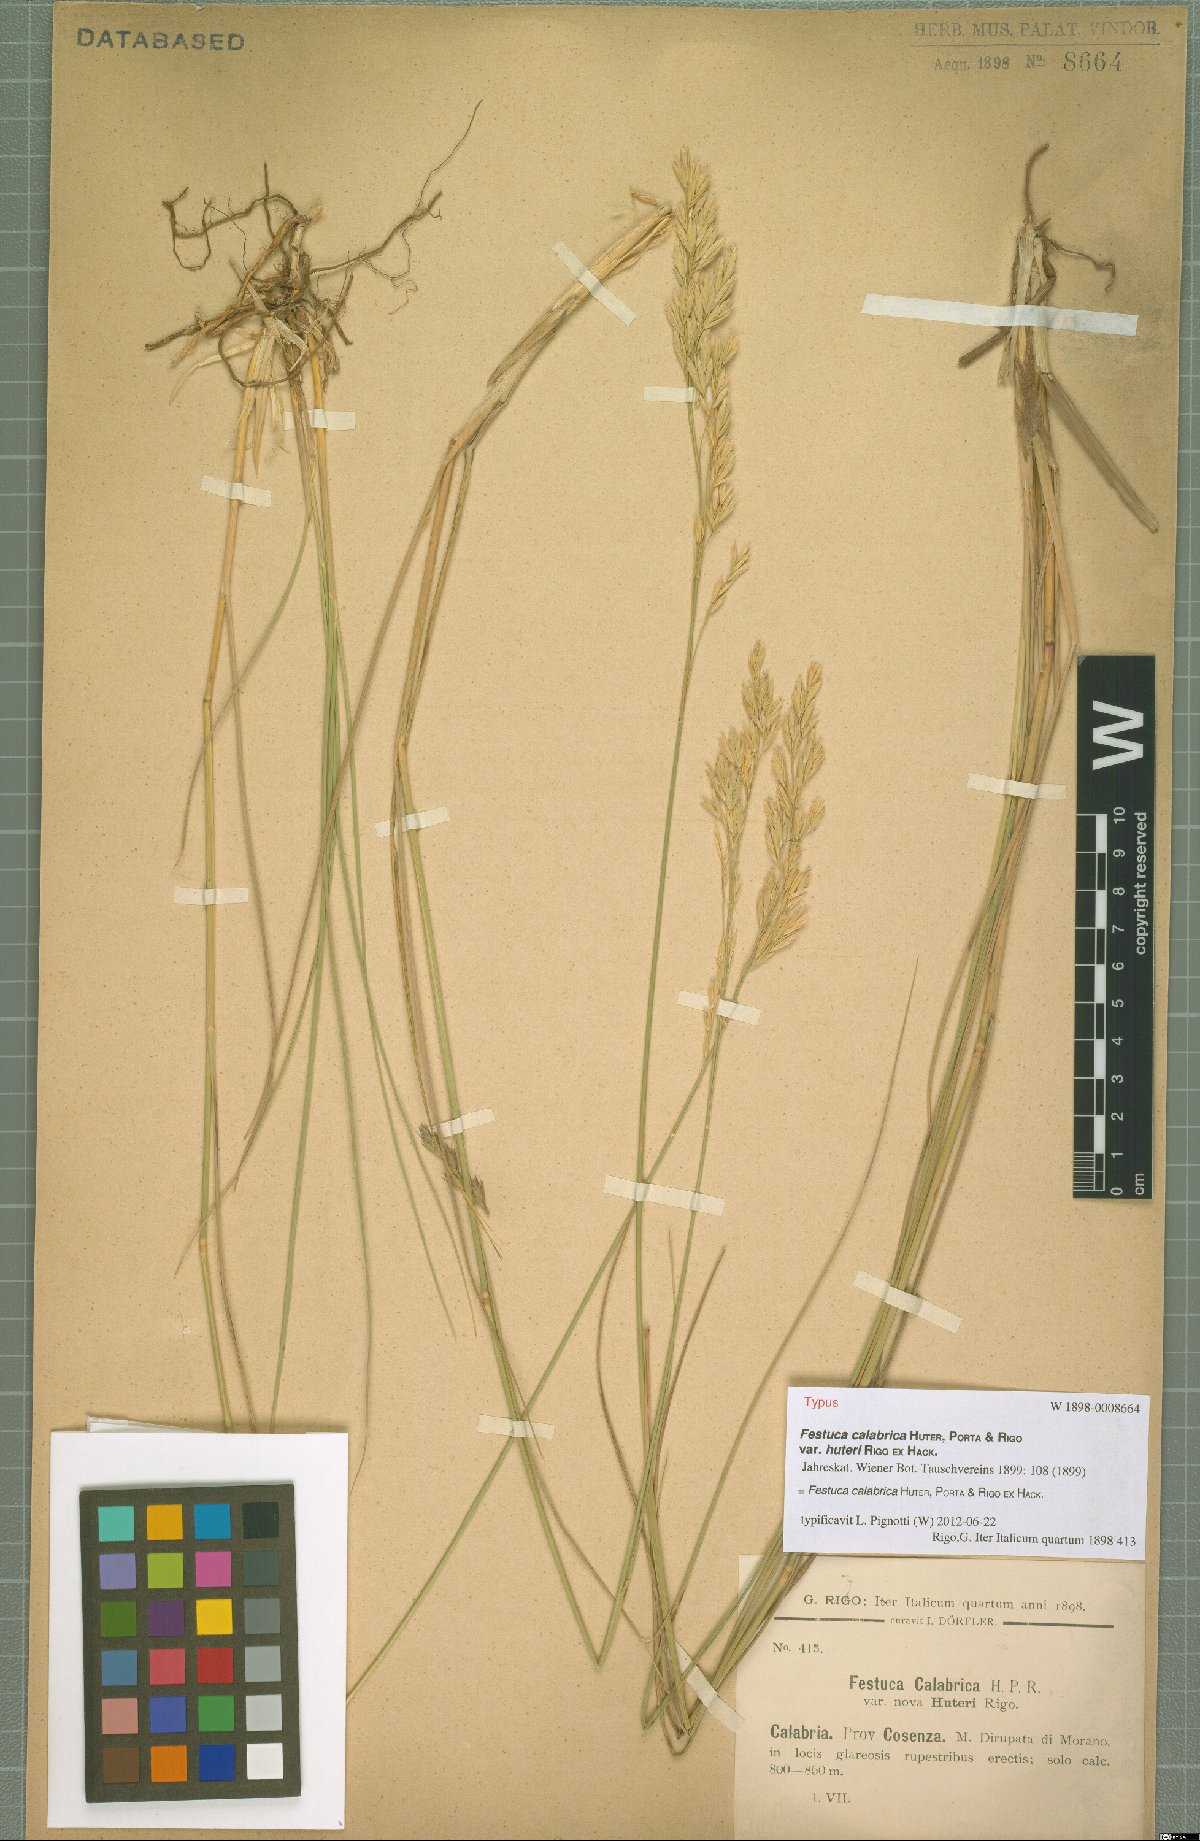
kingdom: Plantae
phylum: Tracheophyta
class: Liliopsida
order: Poales
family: Poaceae
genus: Festuca
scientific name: Festuca calabrica
